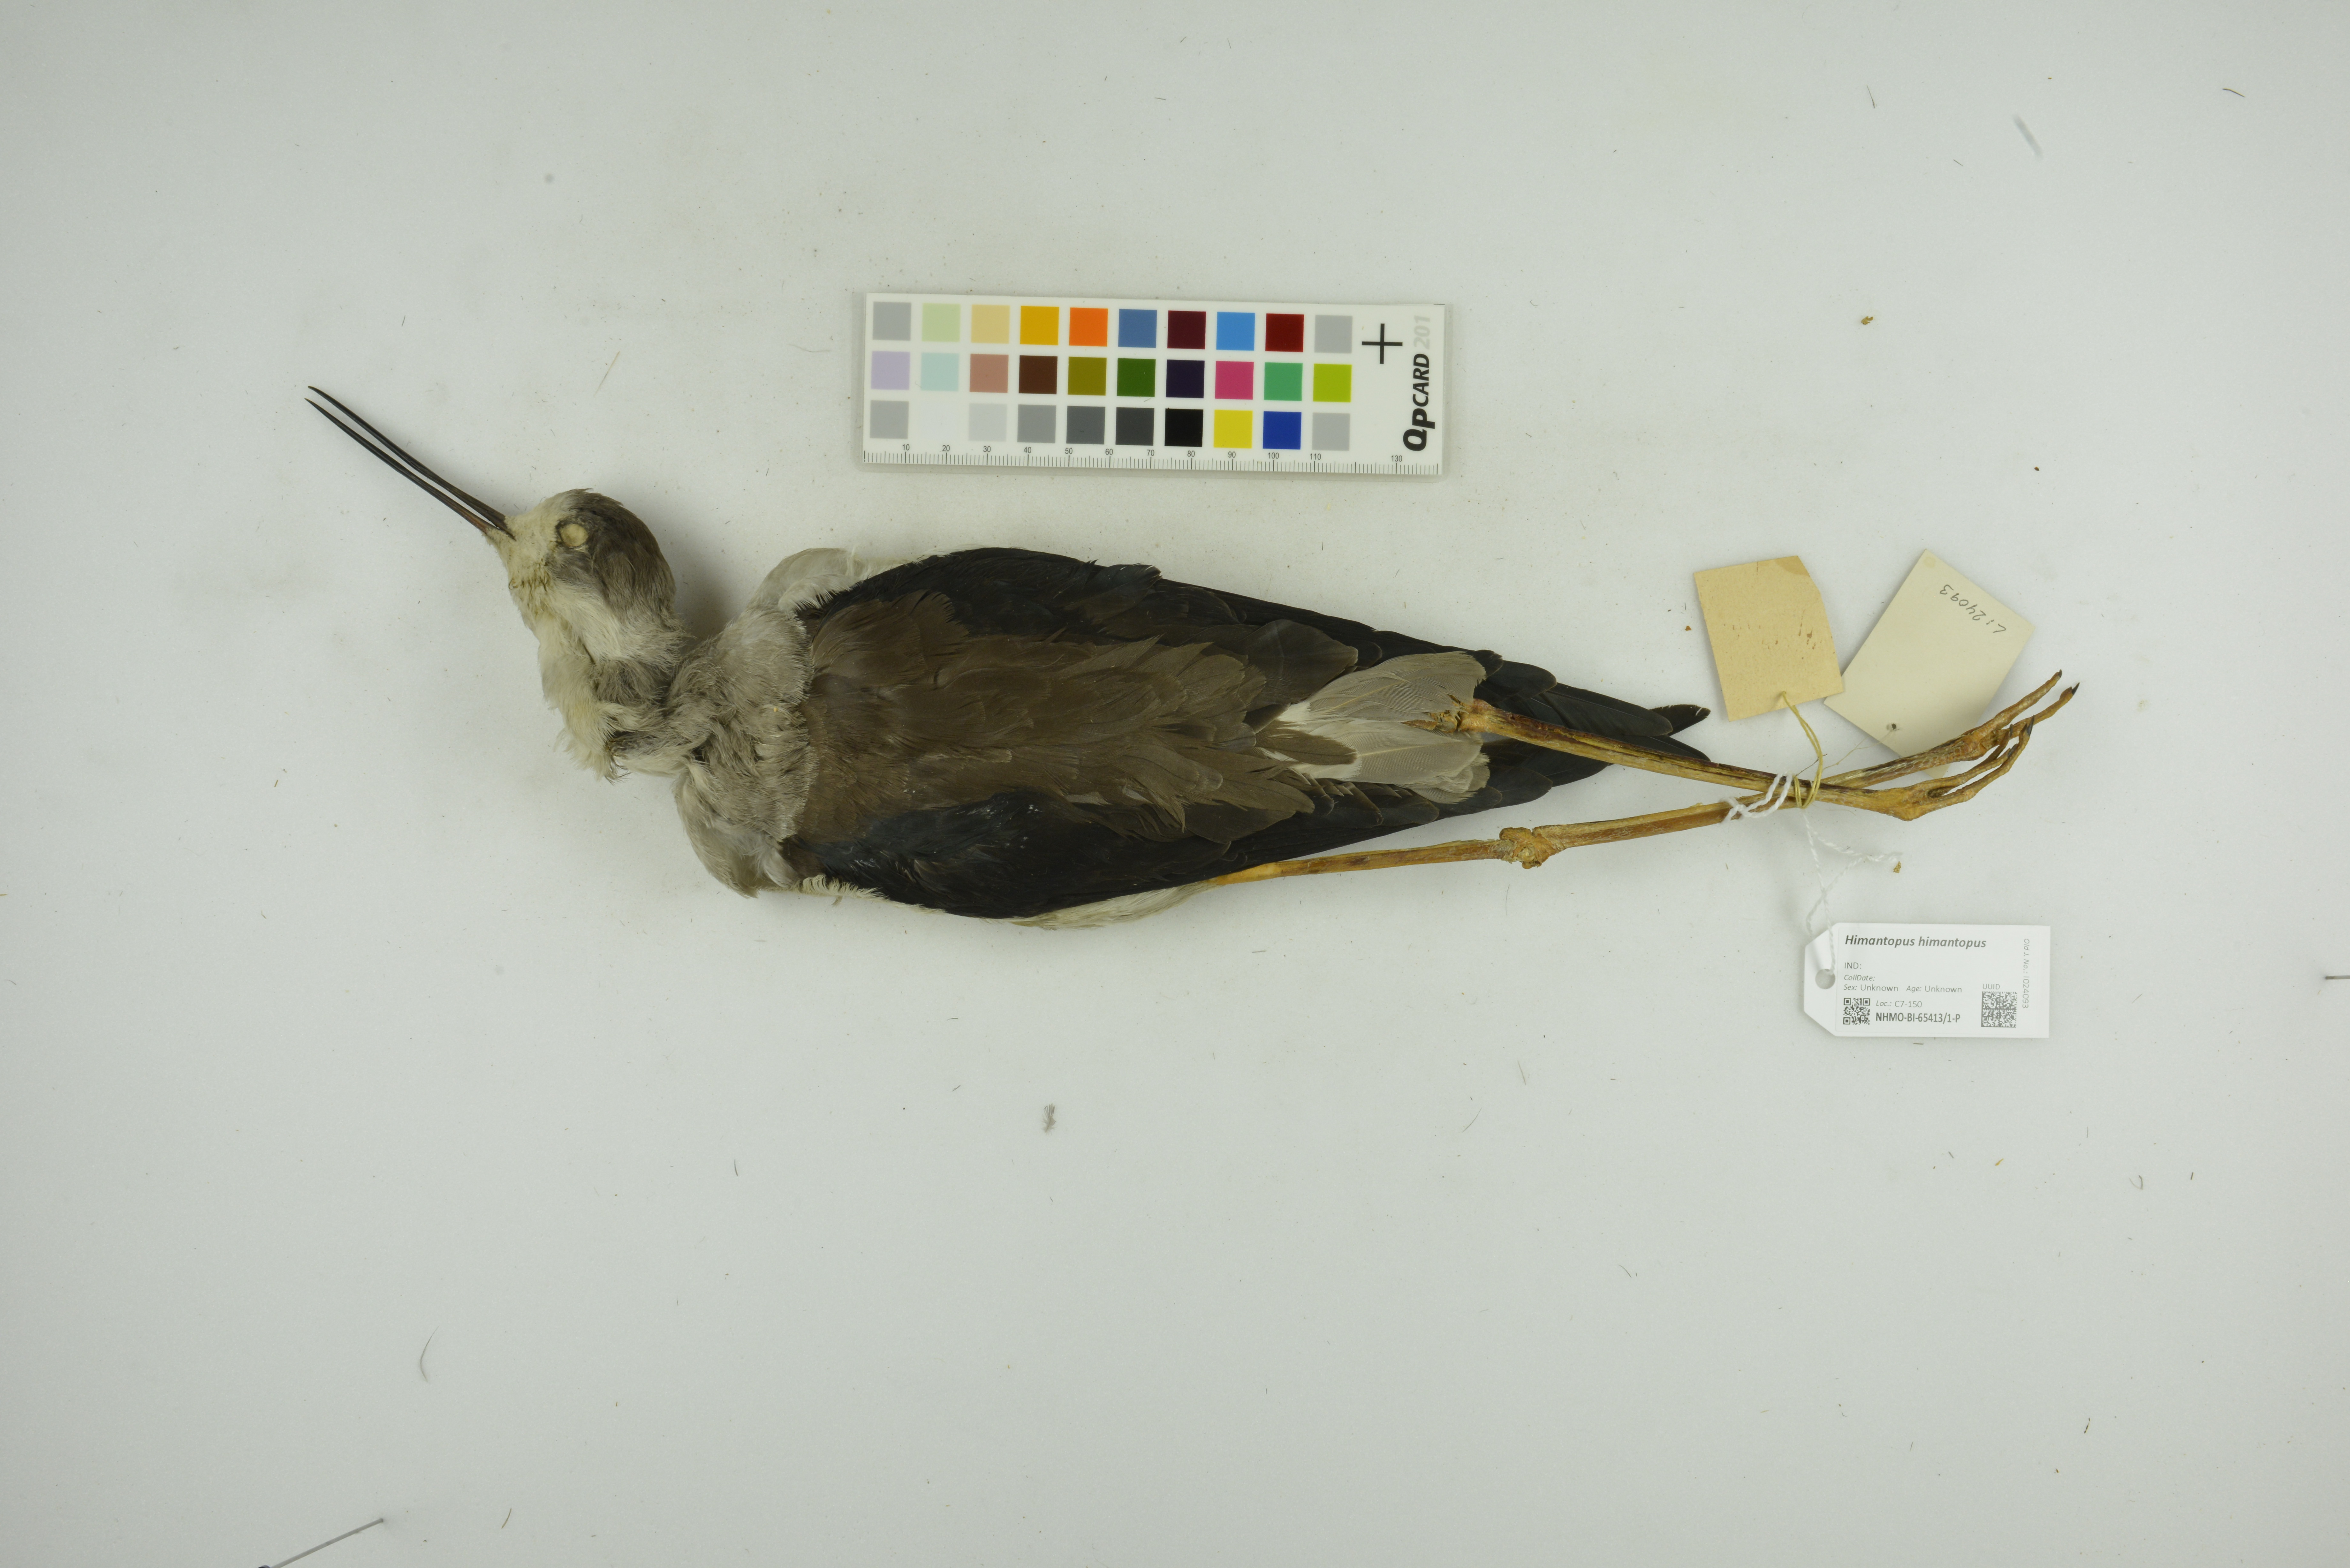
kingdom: Animalia
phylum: Chordata
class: Aves
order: Charadriiformes
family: Recurvirostridae
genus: Himantopus
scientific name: Himantopus himantopus
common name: Black-winged stilt
